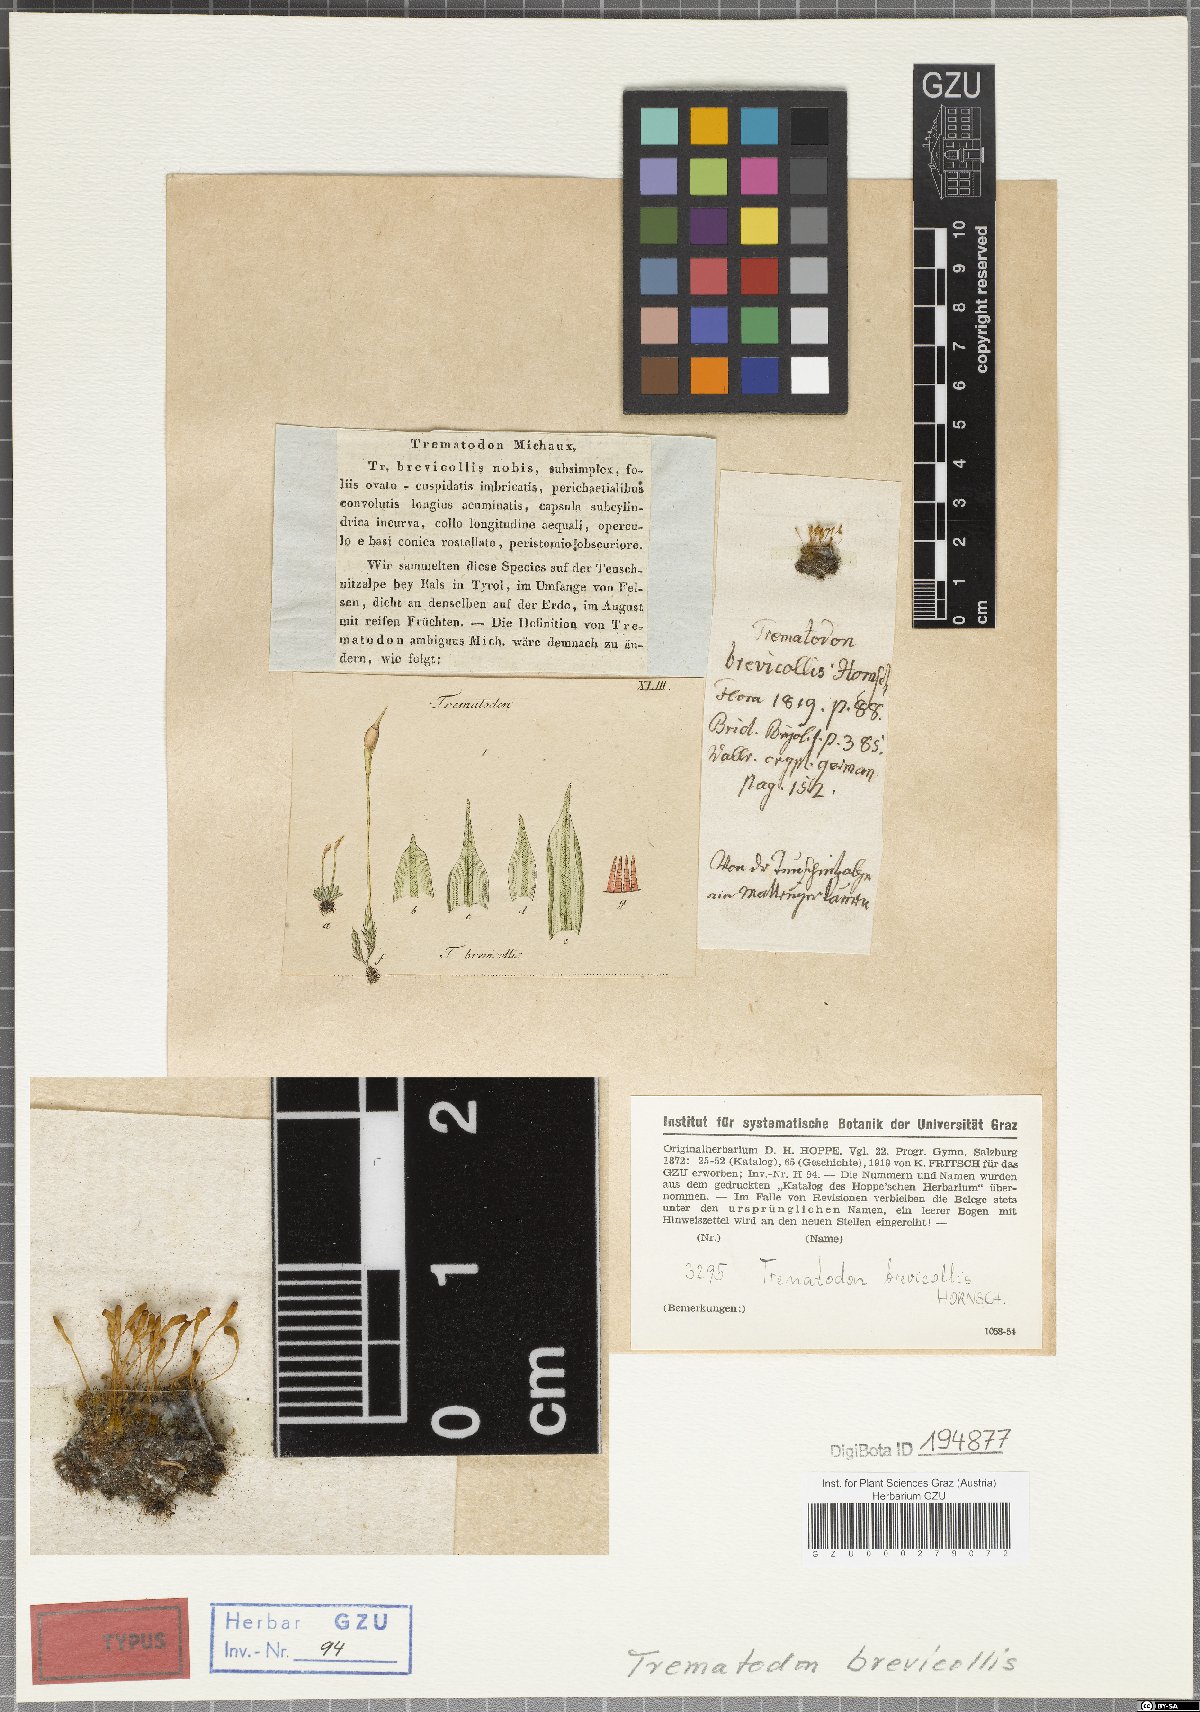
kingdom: Plantae
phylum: Bryophyta
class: Bryopsida
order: Dicranales
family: Bruchiaceae
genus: Trematodon
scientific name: Trematodon brevicollis
